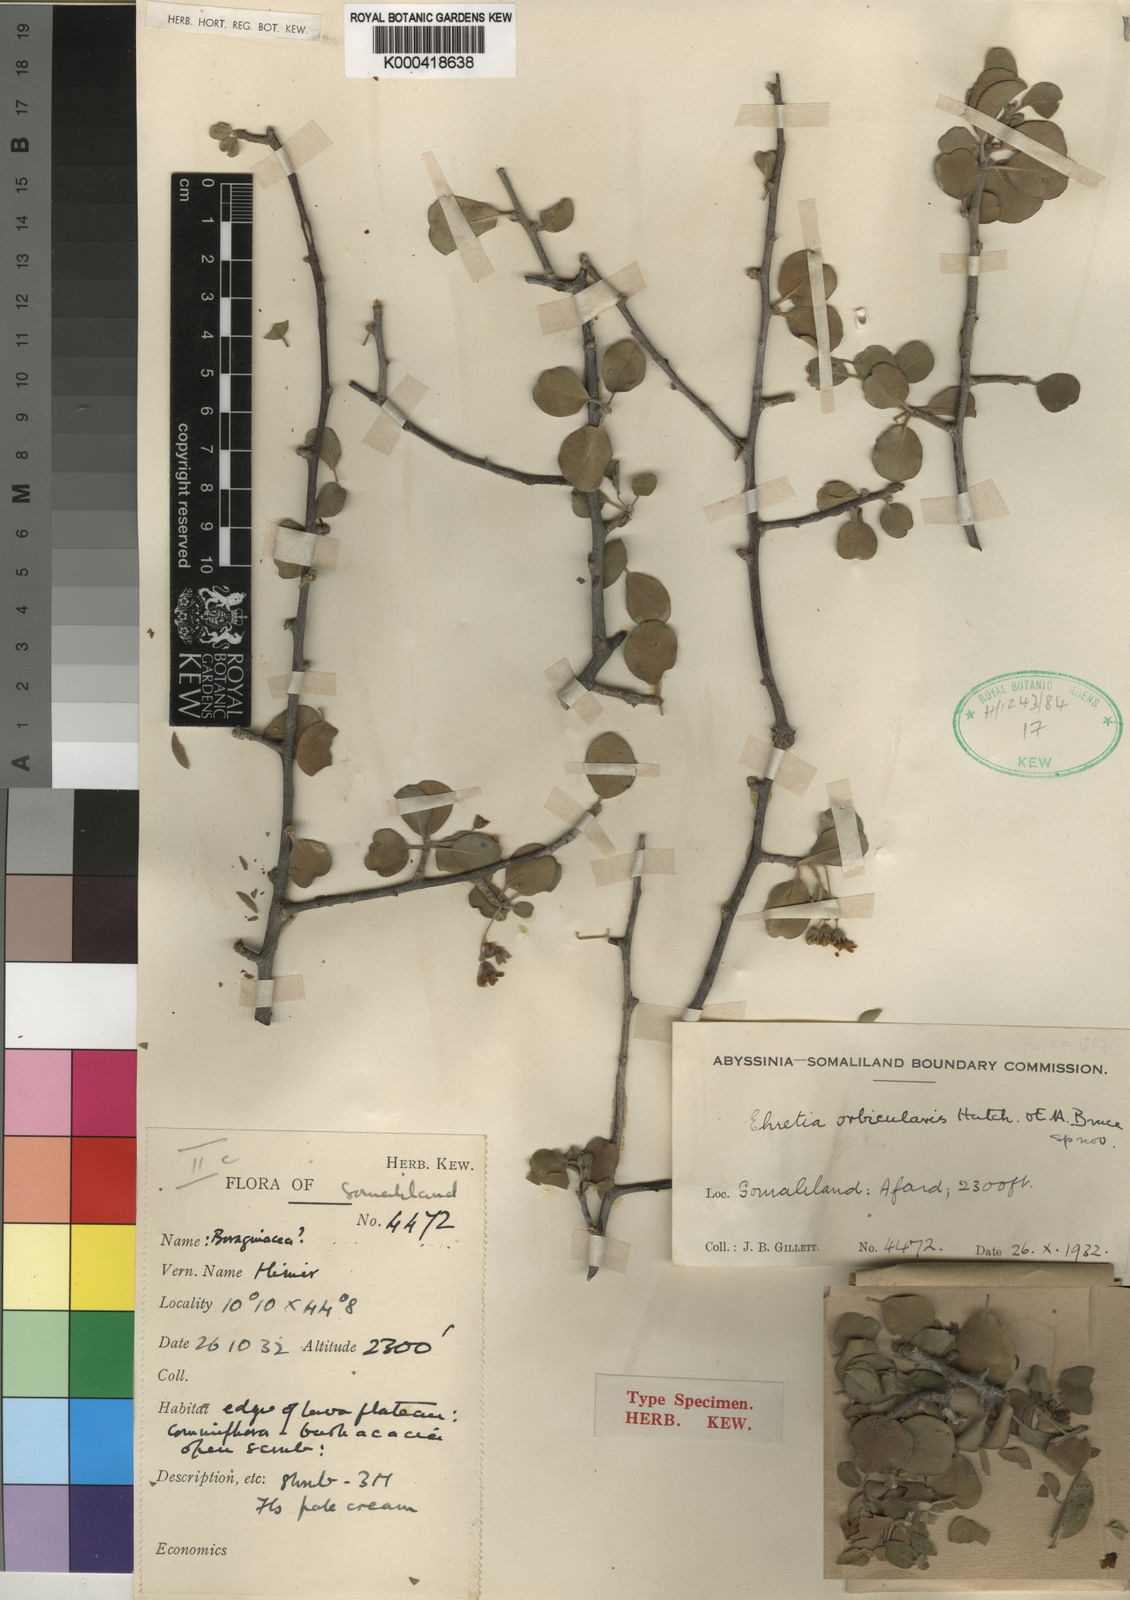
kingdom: Plantae
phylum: Tracheophyta
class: Magnoliopsida
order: Boraginales
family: Ehretiaceae
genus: Bourreria
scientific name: Bourreria orbicularis
